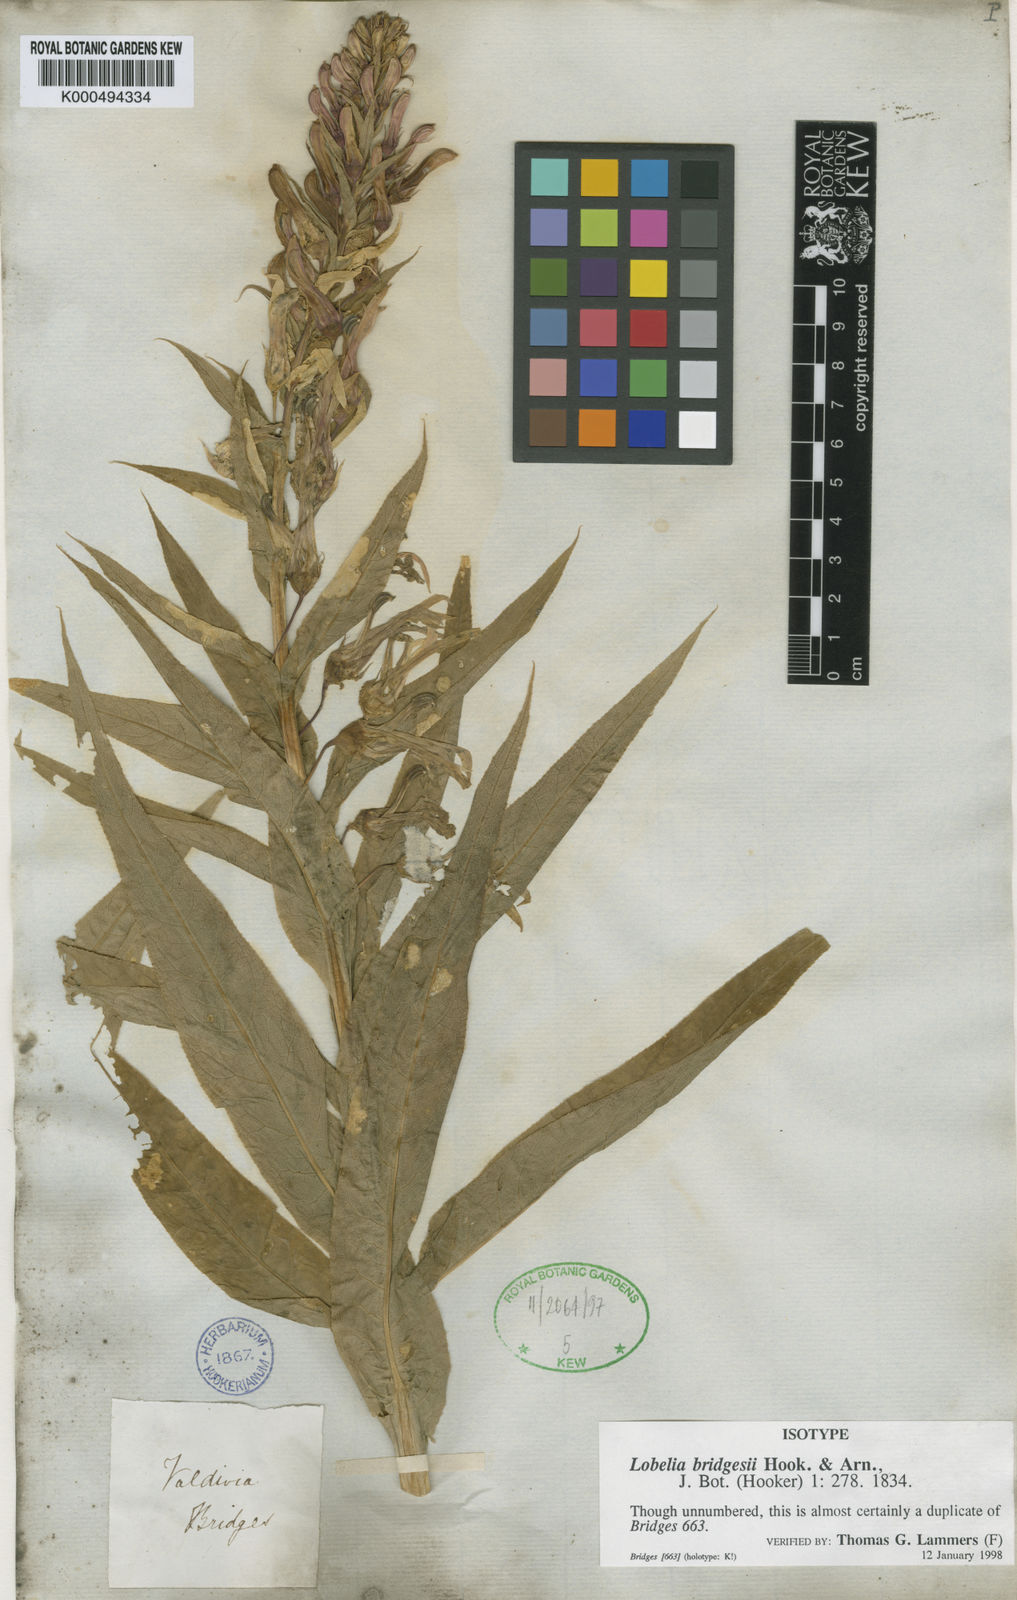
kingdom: Plantae
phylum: Tracheophyta
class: Magnoliopsida
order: Asterales
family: Campanulaceae
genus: Lobelia
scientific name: Lobelia bridgesii
